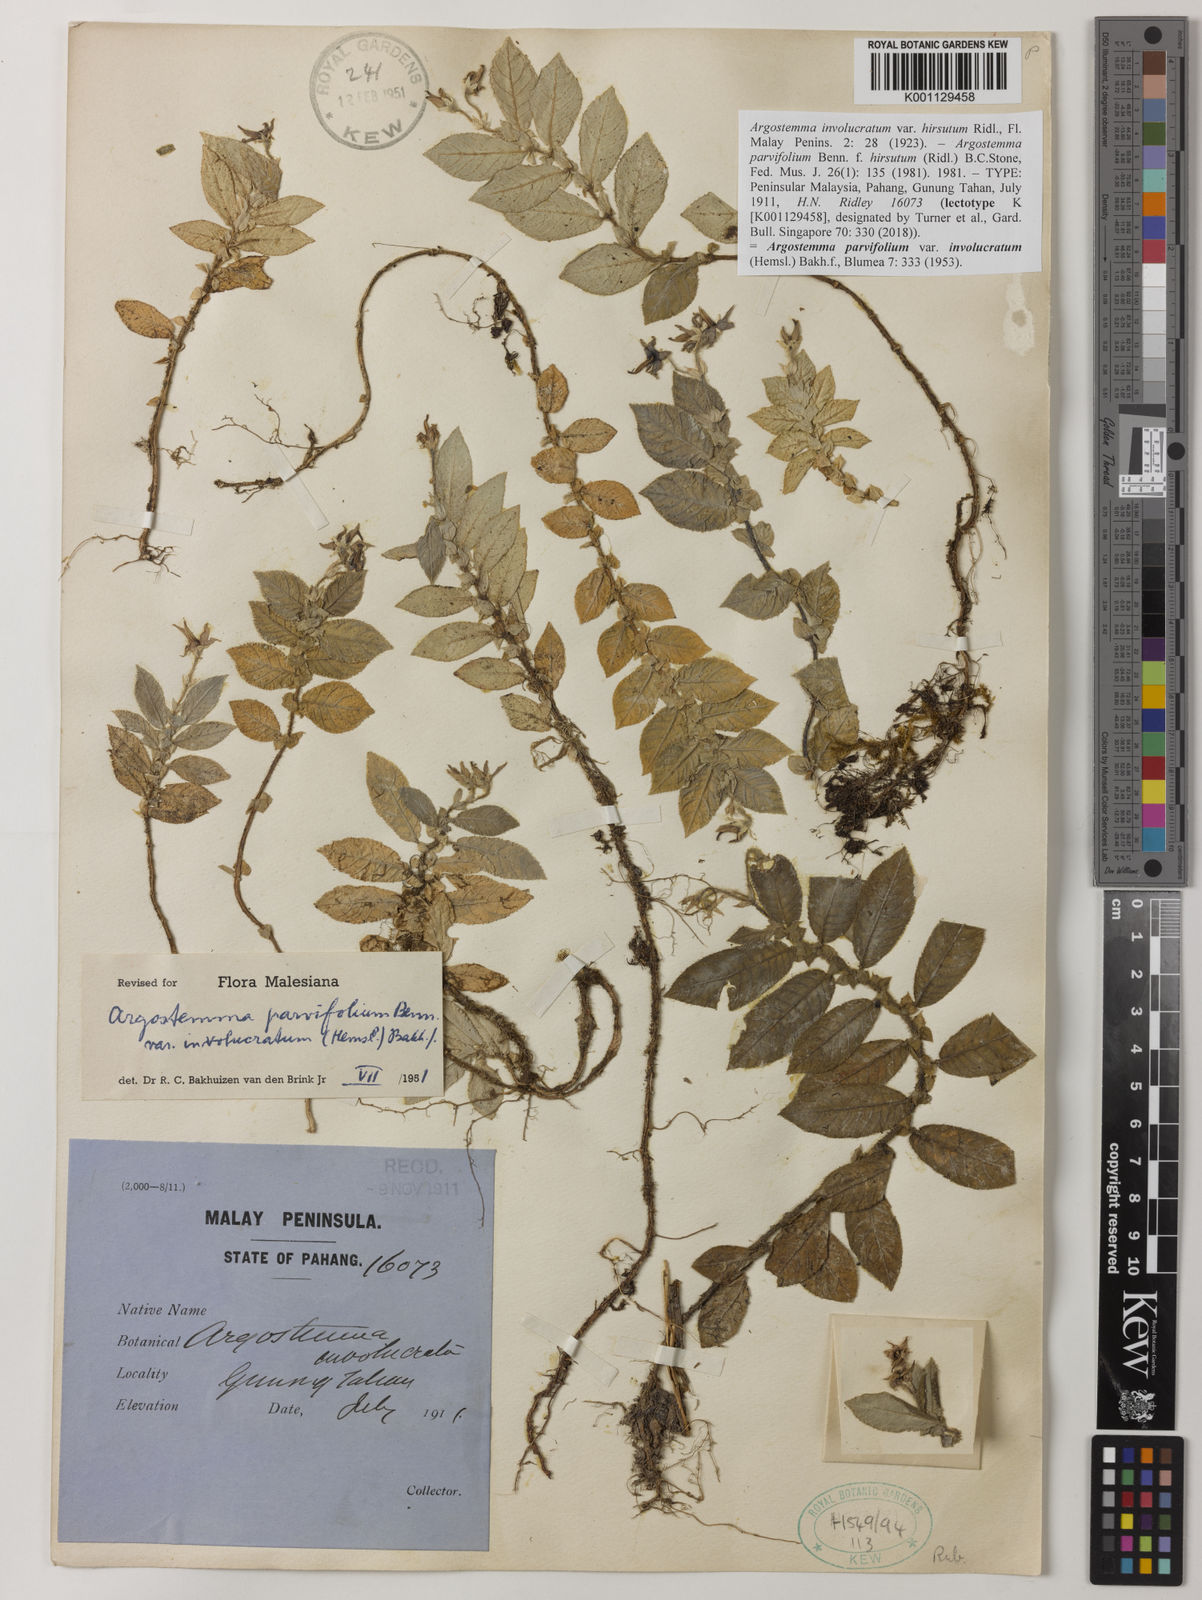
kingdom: Plantae
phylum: Tracheophyta
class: Magnoliopsida
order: Gentianales
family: Rubiaceae
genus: Argostemma
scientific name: Argostemma parvifolium
